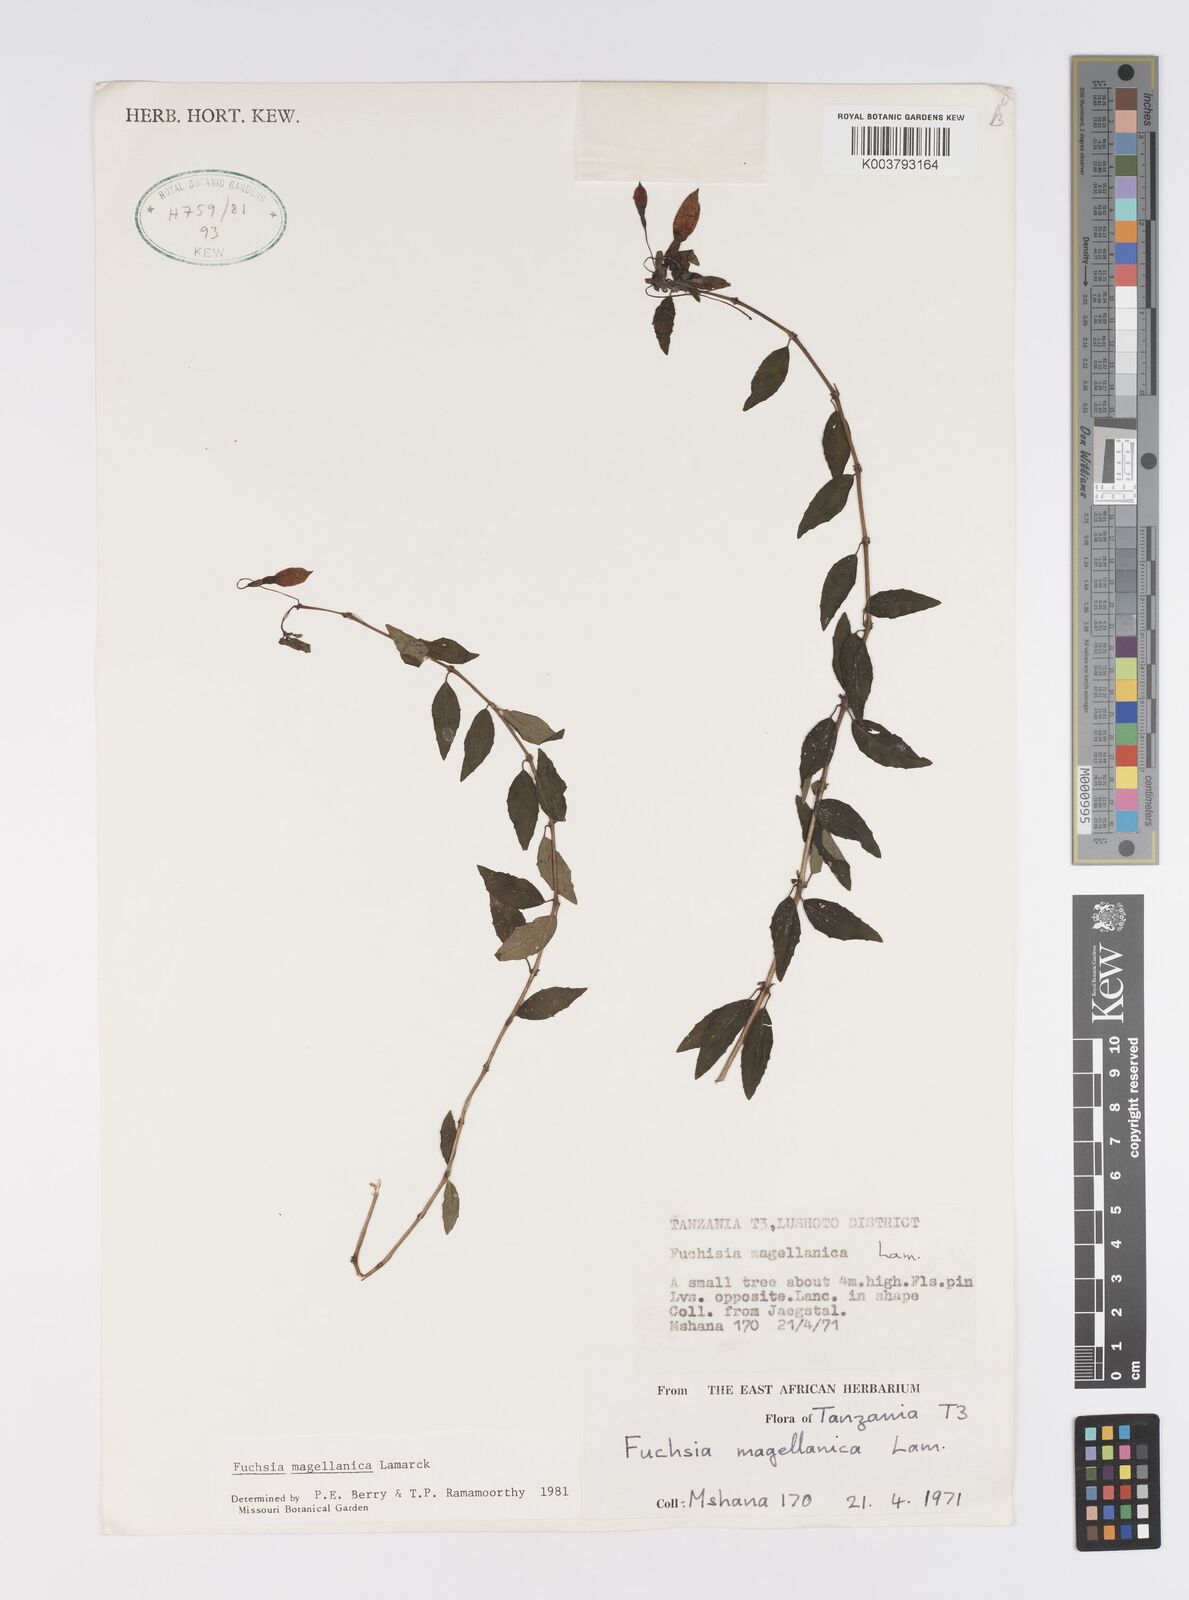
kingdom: Plantae
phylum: Tracheophyta
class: Magnoliopsida
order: Myrtales
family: Onagraceae
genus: Fuchsia
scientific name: Fuchsia magellanica
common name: Hardy fuchsia
